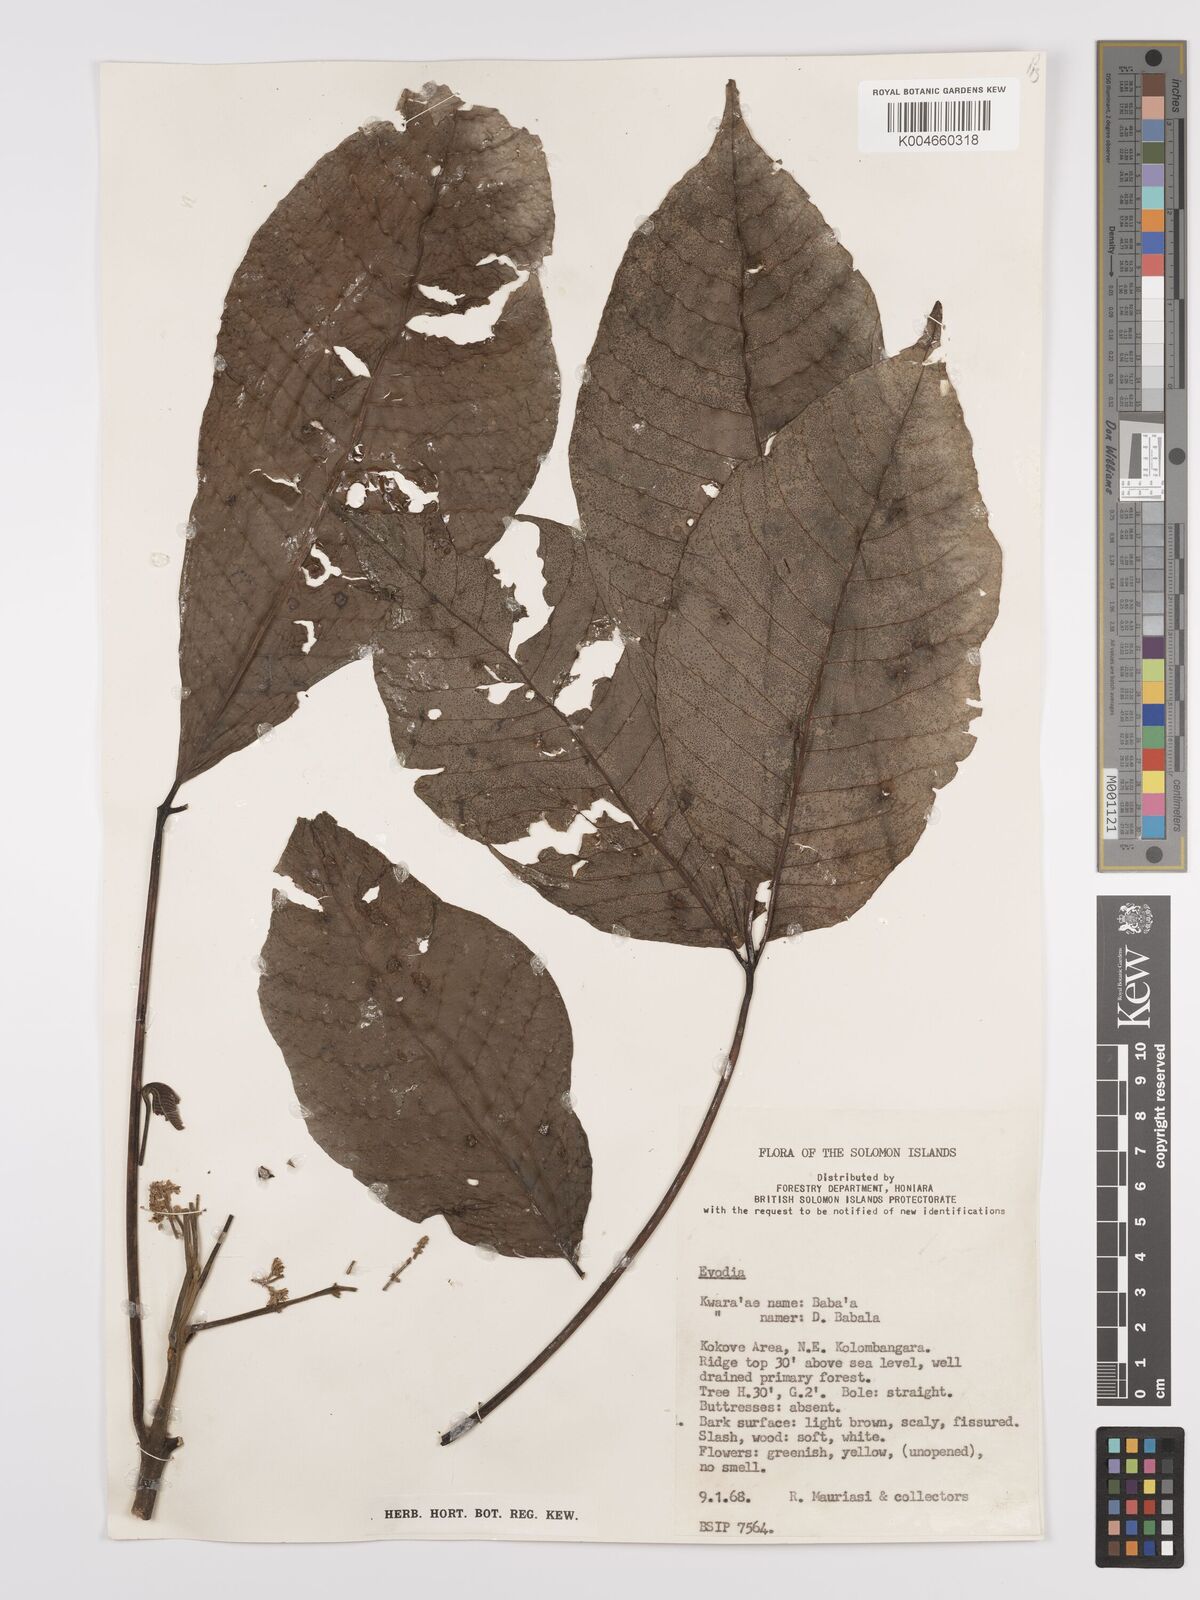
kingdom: Plantae
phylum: Tracheophyta
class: Magnoliopsida
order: Sapindales
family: Rutaceae
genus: Euodia
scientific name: Euodia
